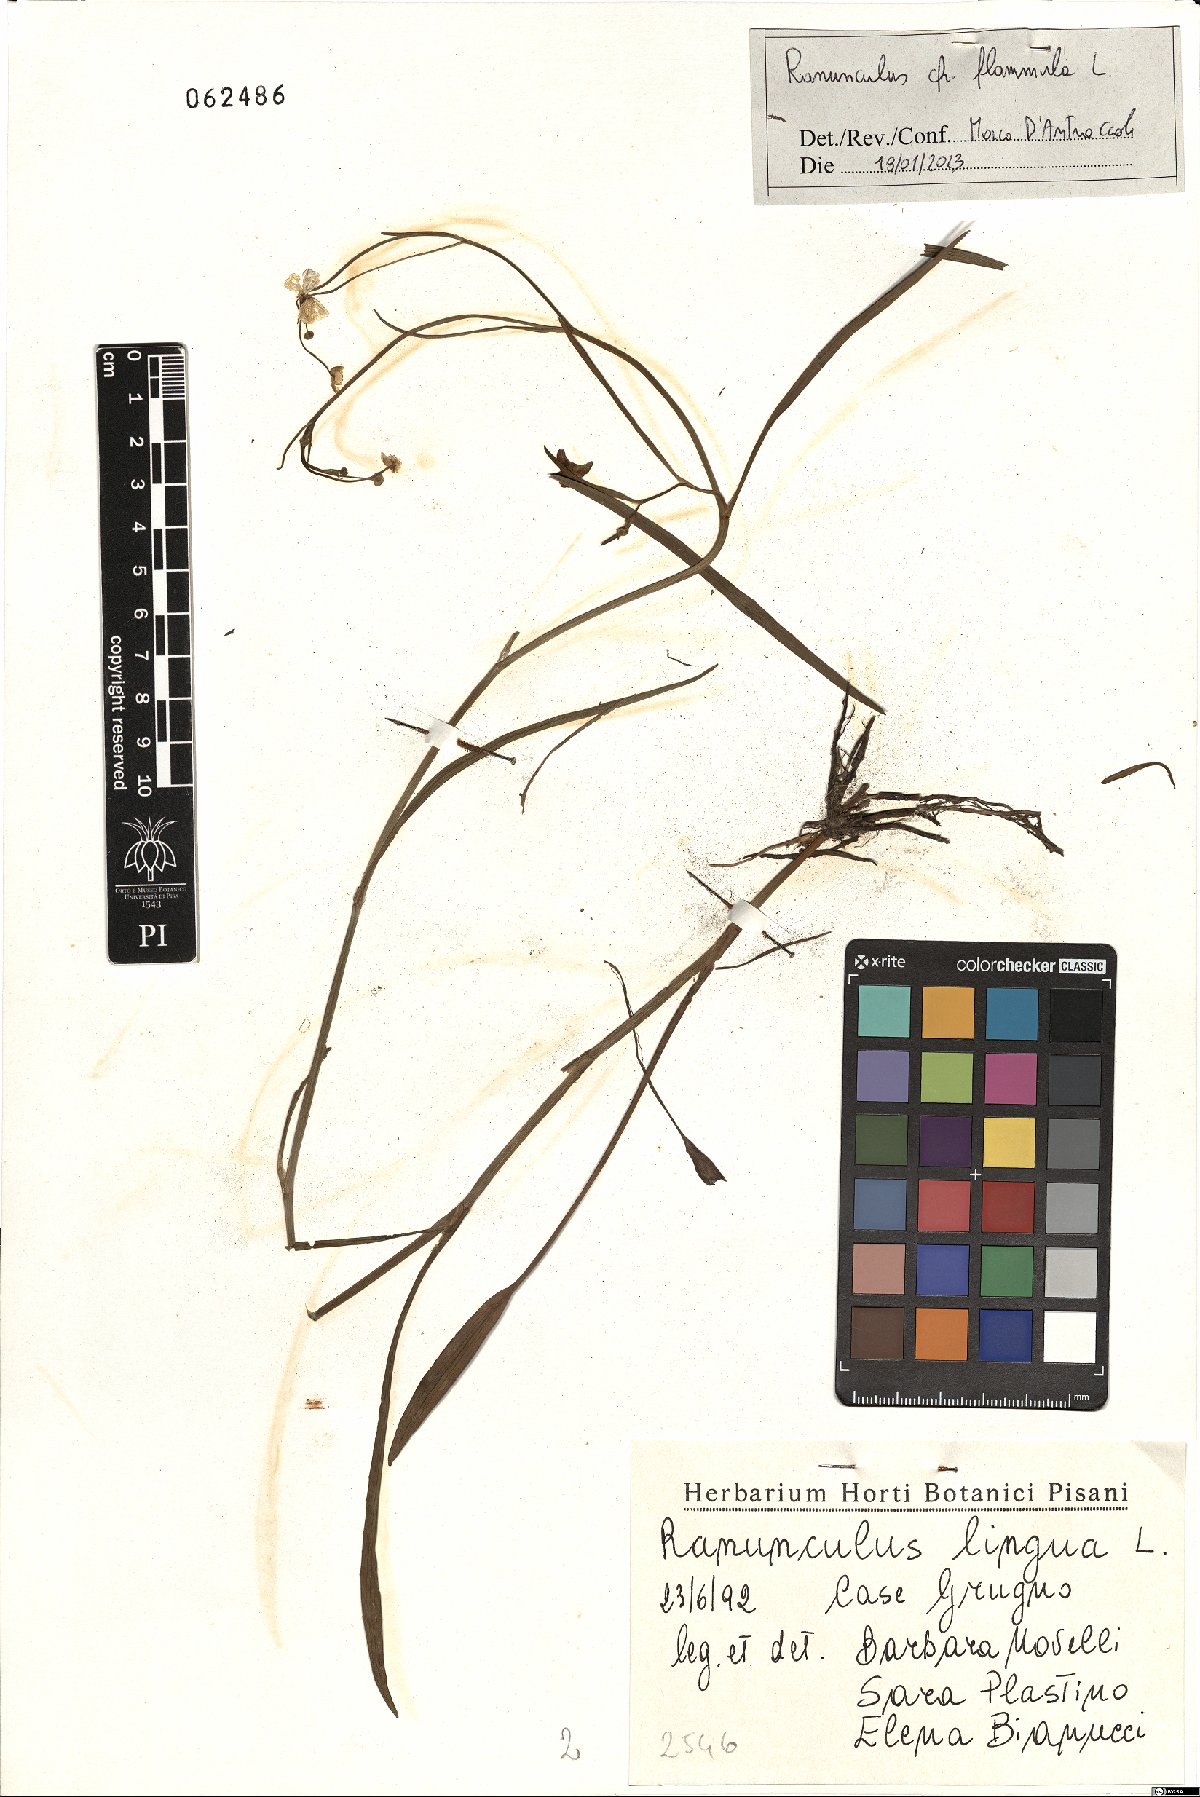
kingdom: Plantae
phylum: Tracheophyta
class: Magnoliopsida
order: Ranunculales
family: Ranunculaceae
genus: Ranunculus
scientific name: Ranunculus flammula
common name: Lesser spearwort
